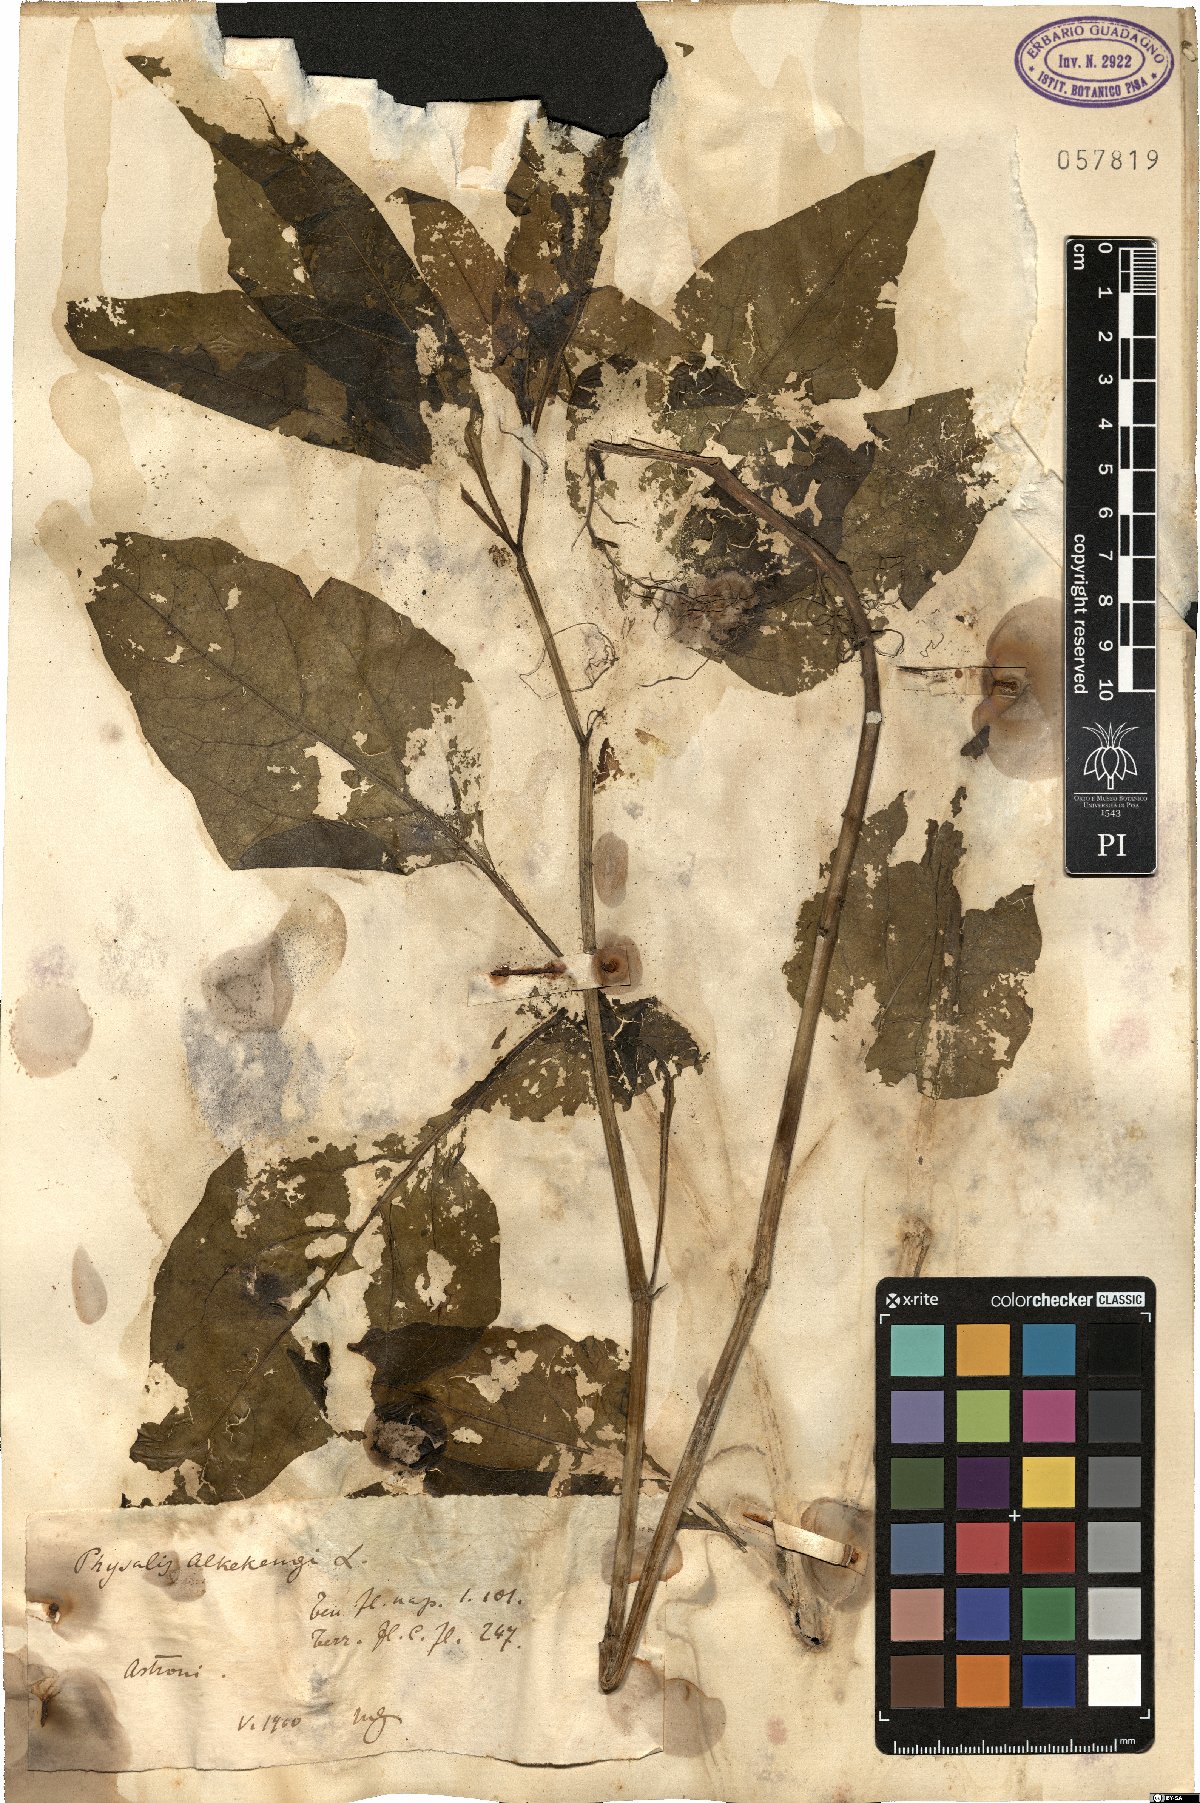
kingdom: Plantae
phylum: Tracheophyta
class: Magnoliopsida
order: Solanales
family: Solanaceae
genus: Alkekengi
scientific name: Alkekengi officinarum
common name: Japanese-lantern
